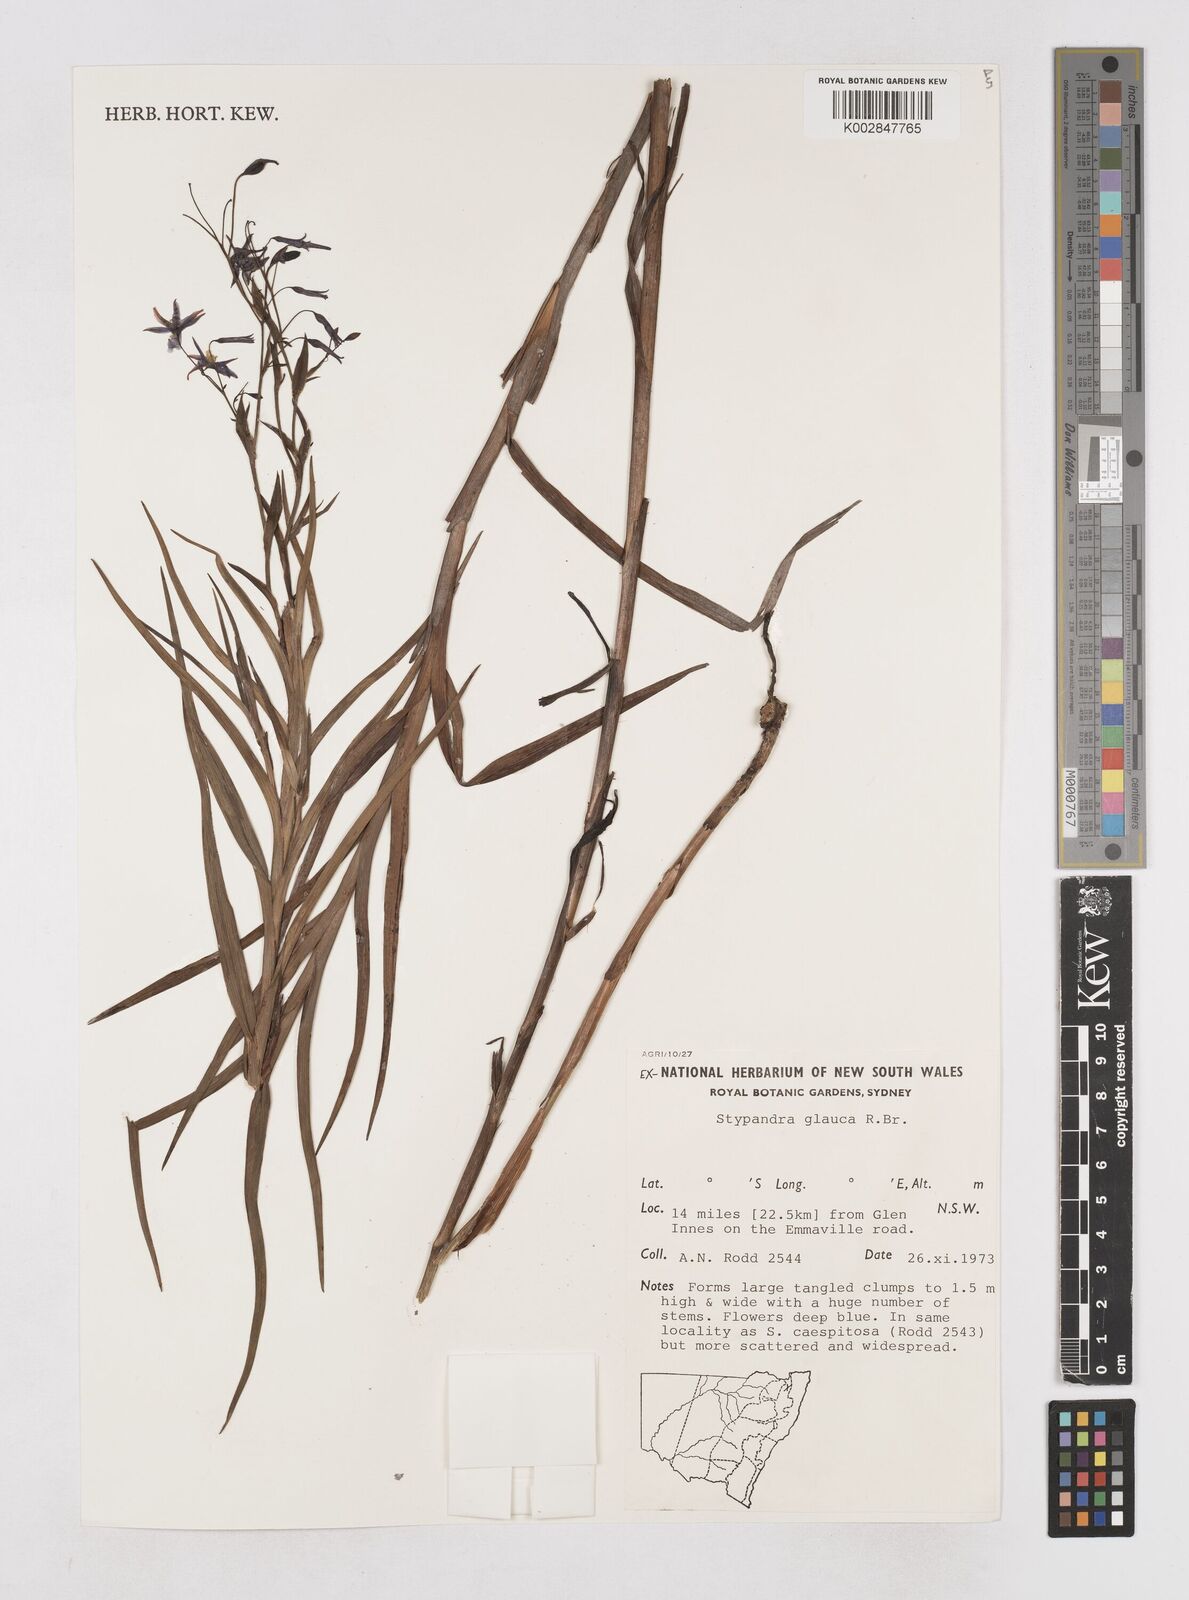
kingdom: Plantae
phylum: Tracheophyta
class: Liliopsida
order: Asparagales
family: Asphodelaceae
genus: Stypandra
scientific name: Stypandra glauca
